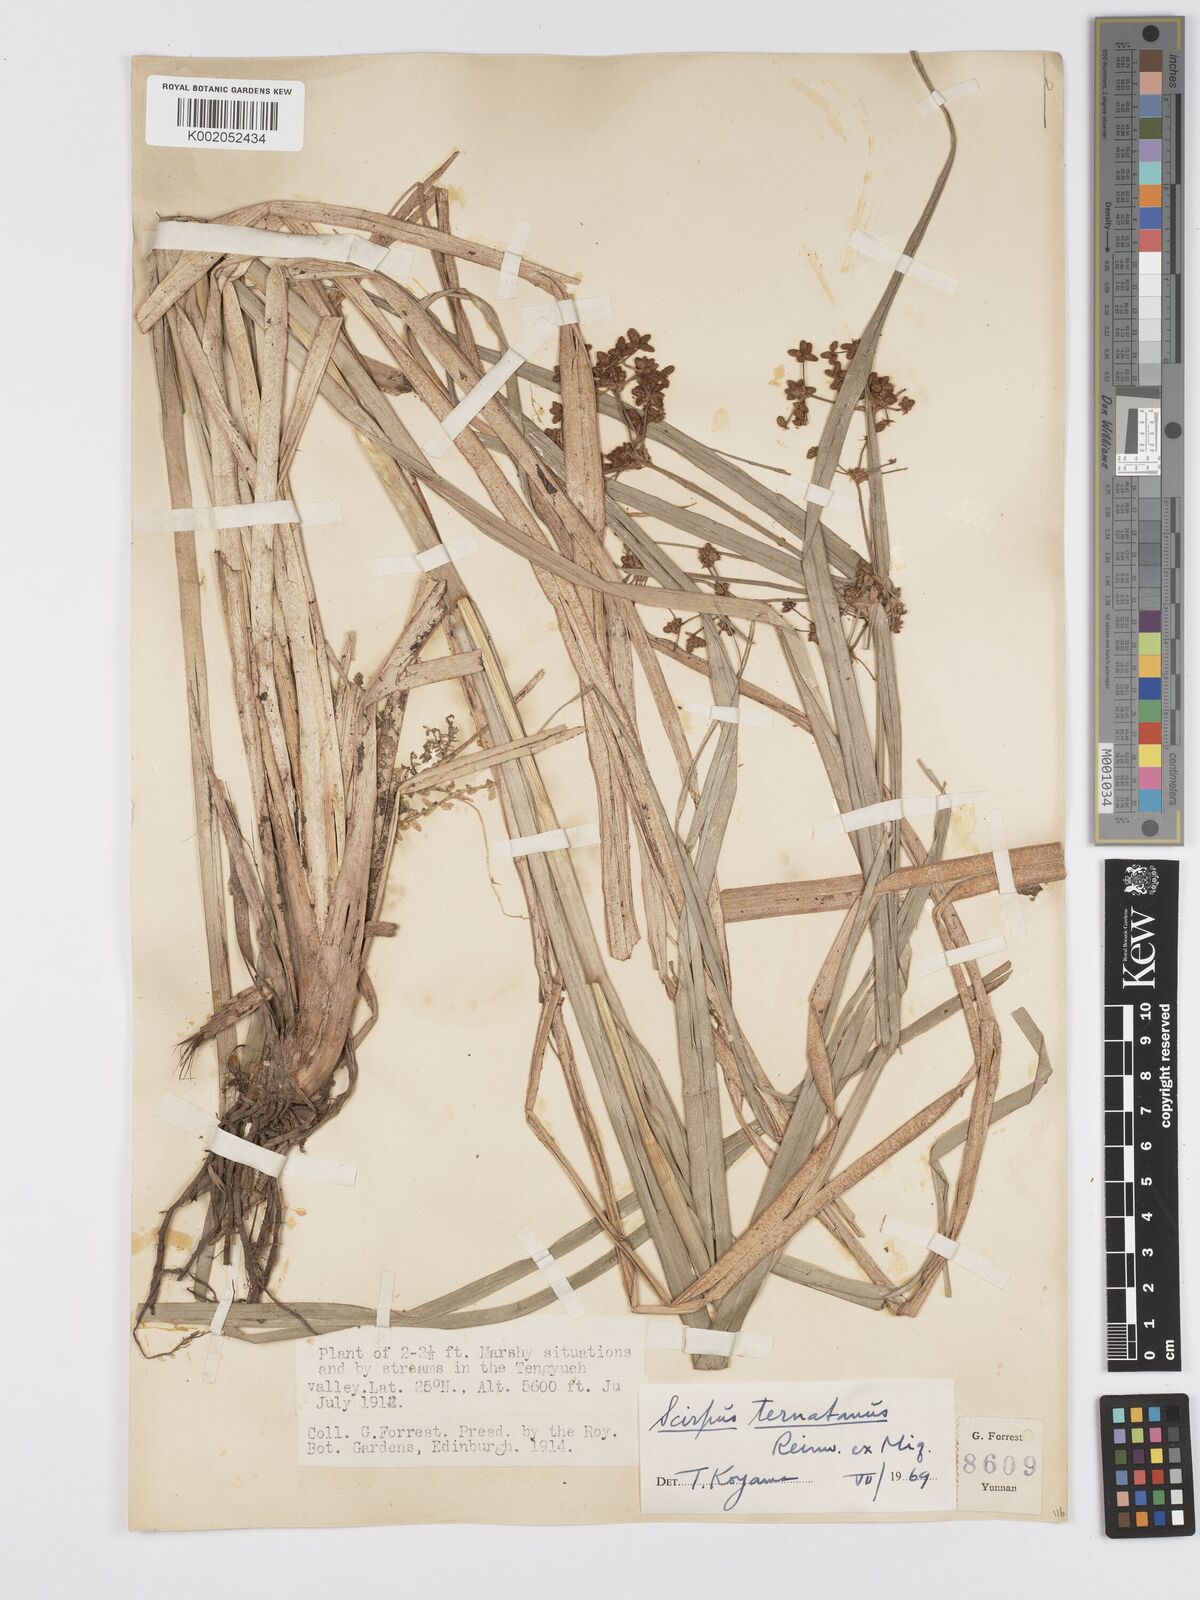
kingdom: Plantae
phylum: Tracheophyta
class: Liliopsida
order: Poales
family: Cyperaceae
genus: Scirpus
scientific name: Scirpus ternatanus
